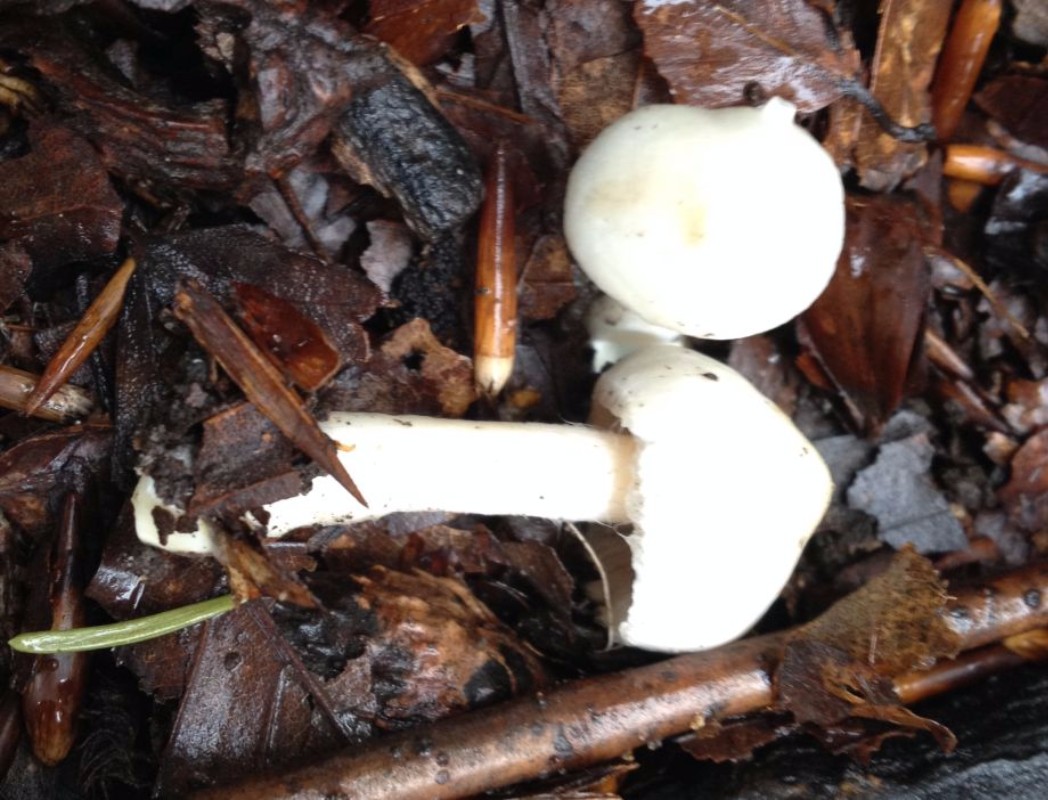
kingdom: Fungi
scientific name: Fungi
